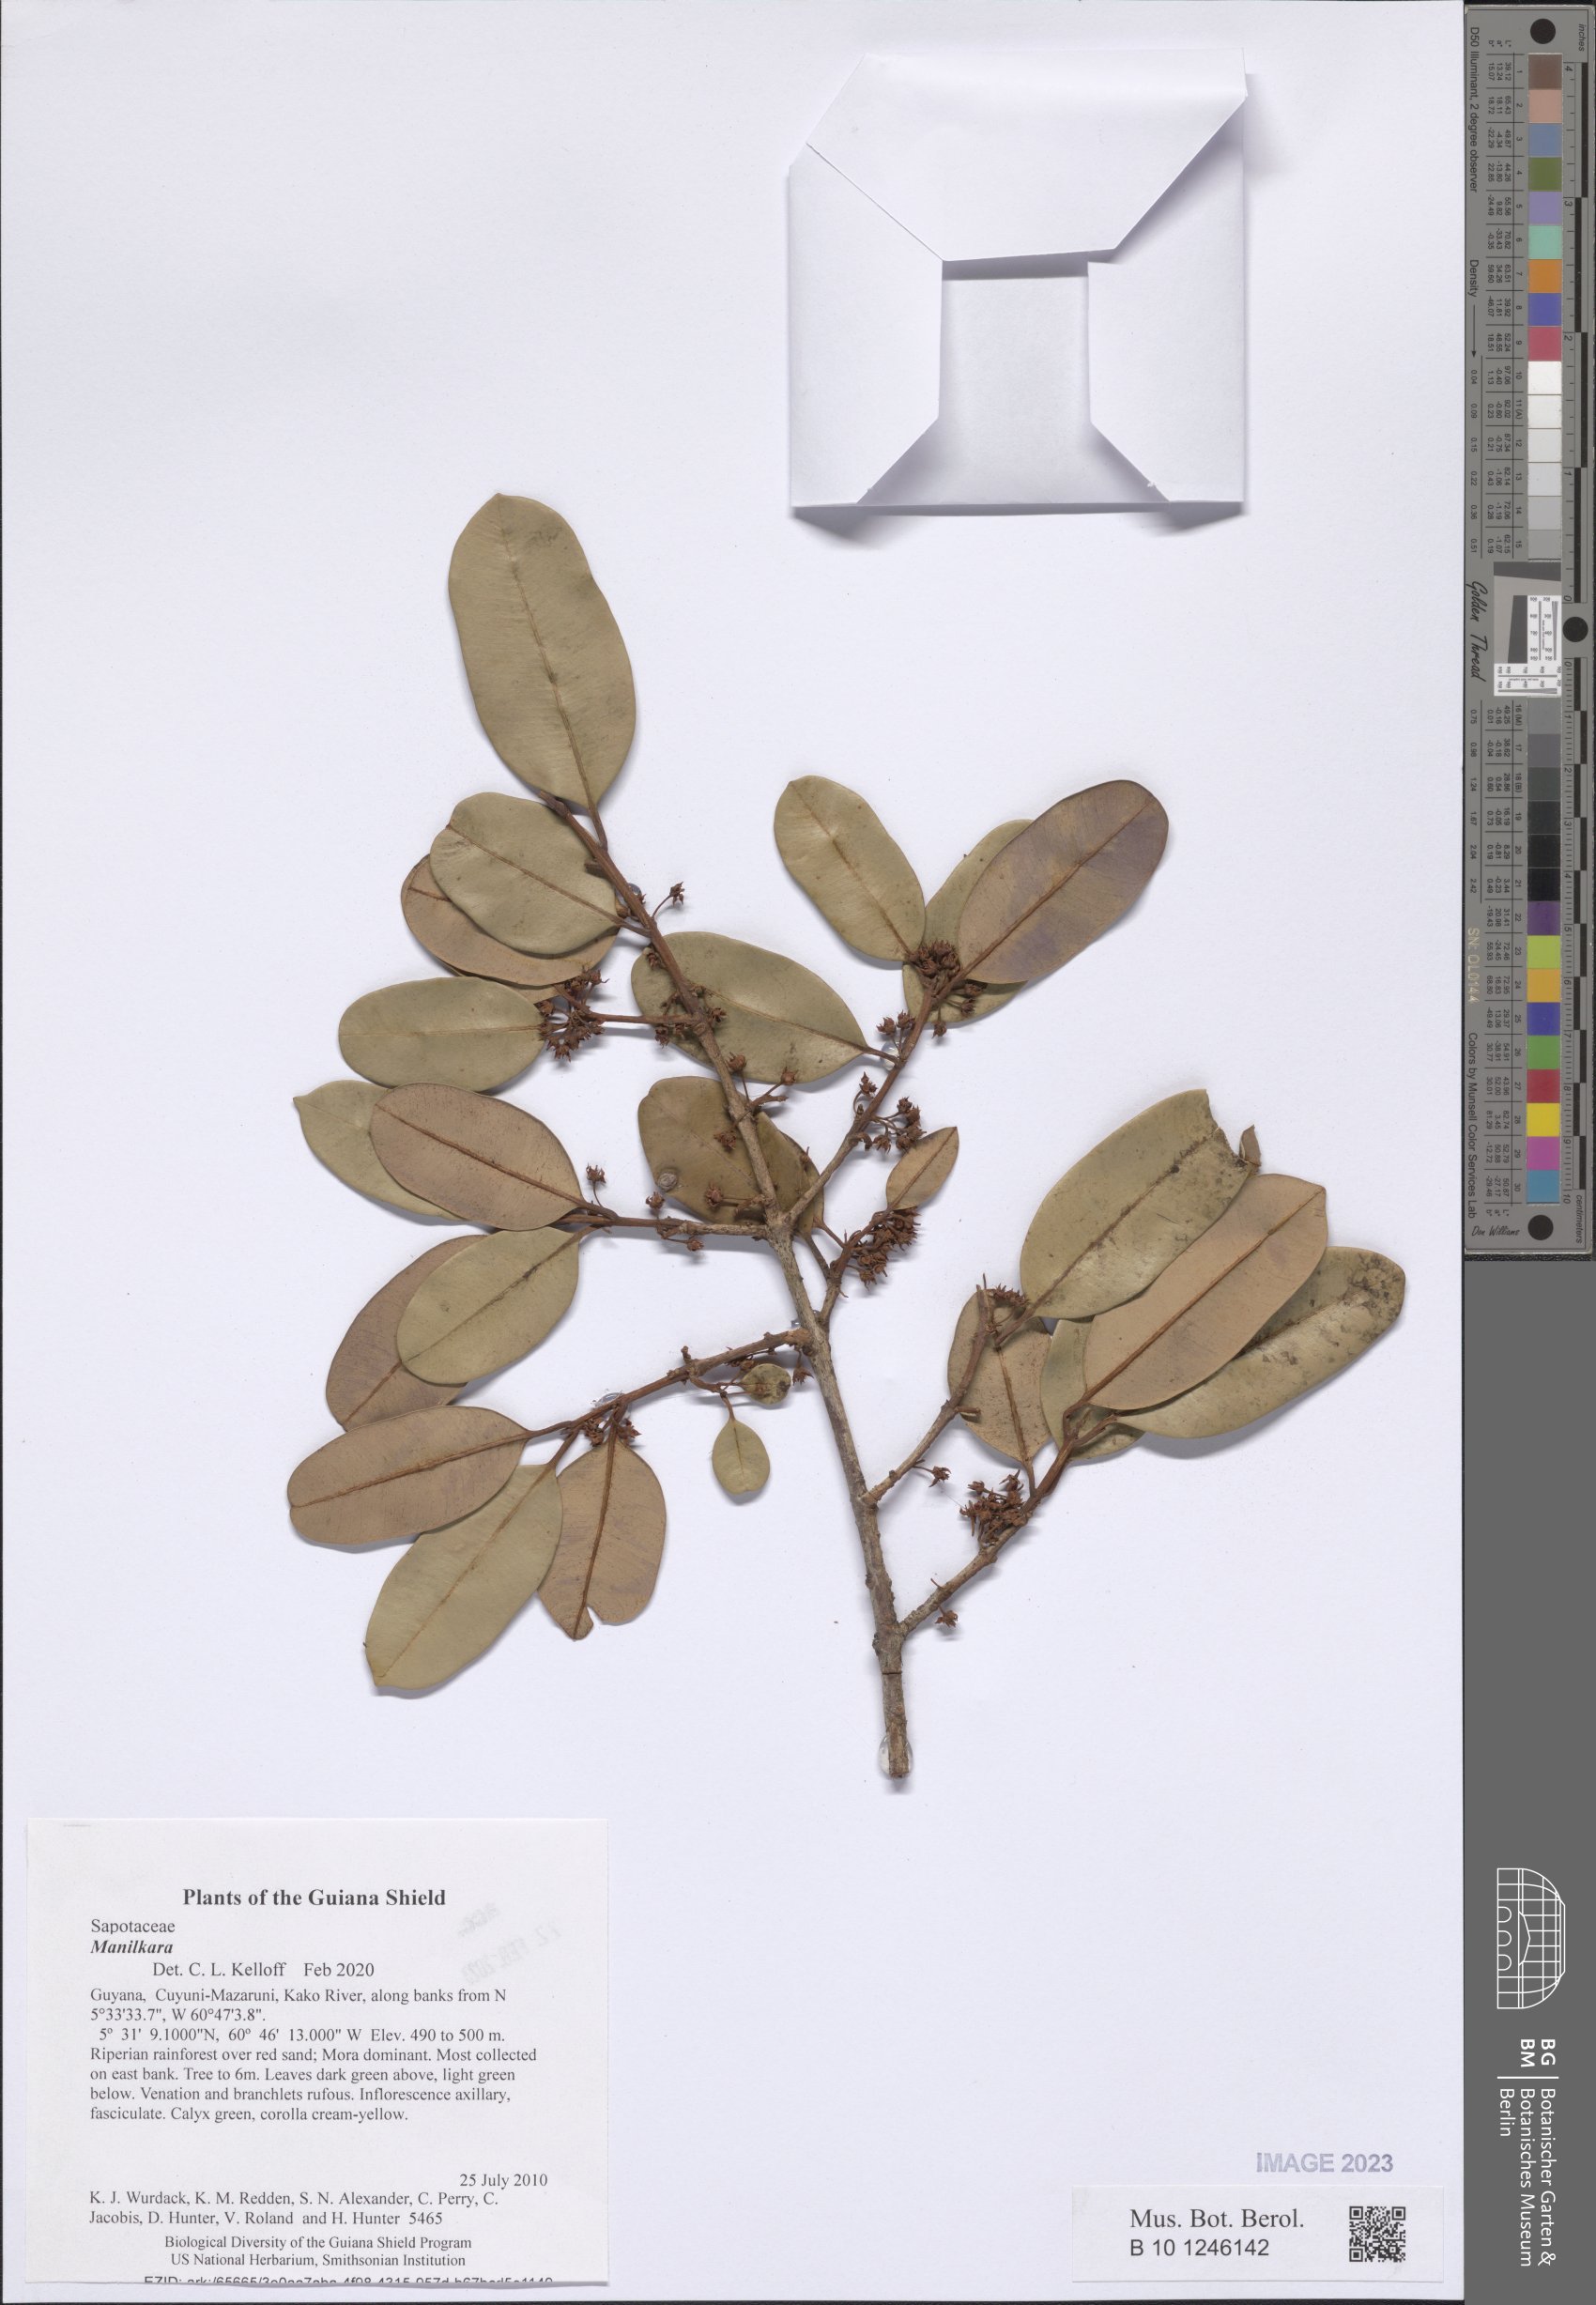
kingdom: Plantae
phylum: Tracheophyta
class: Magnoliopsida
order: Ericales
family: Sapotaceae
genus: Manilkara
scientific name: Manilkara
